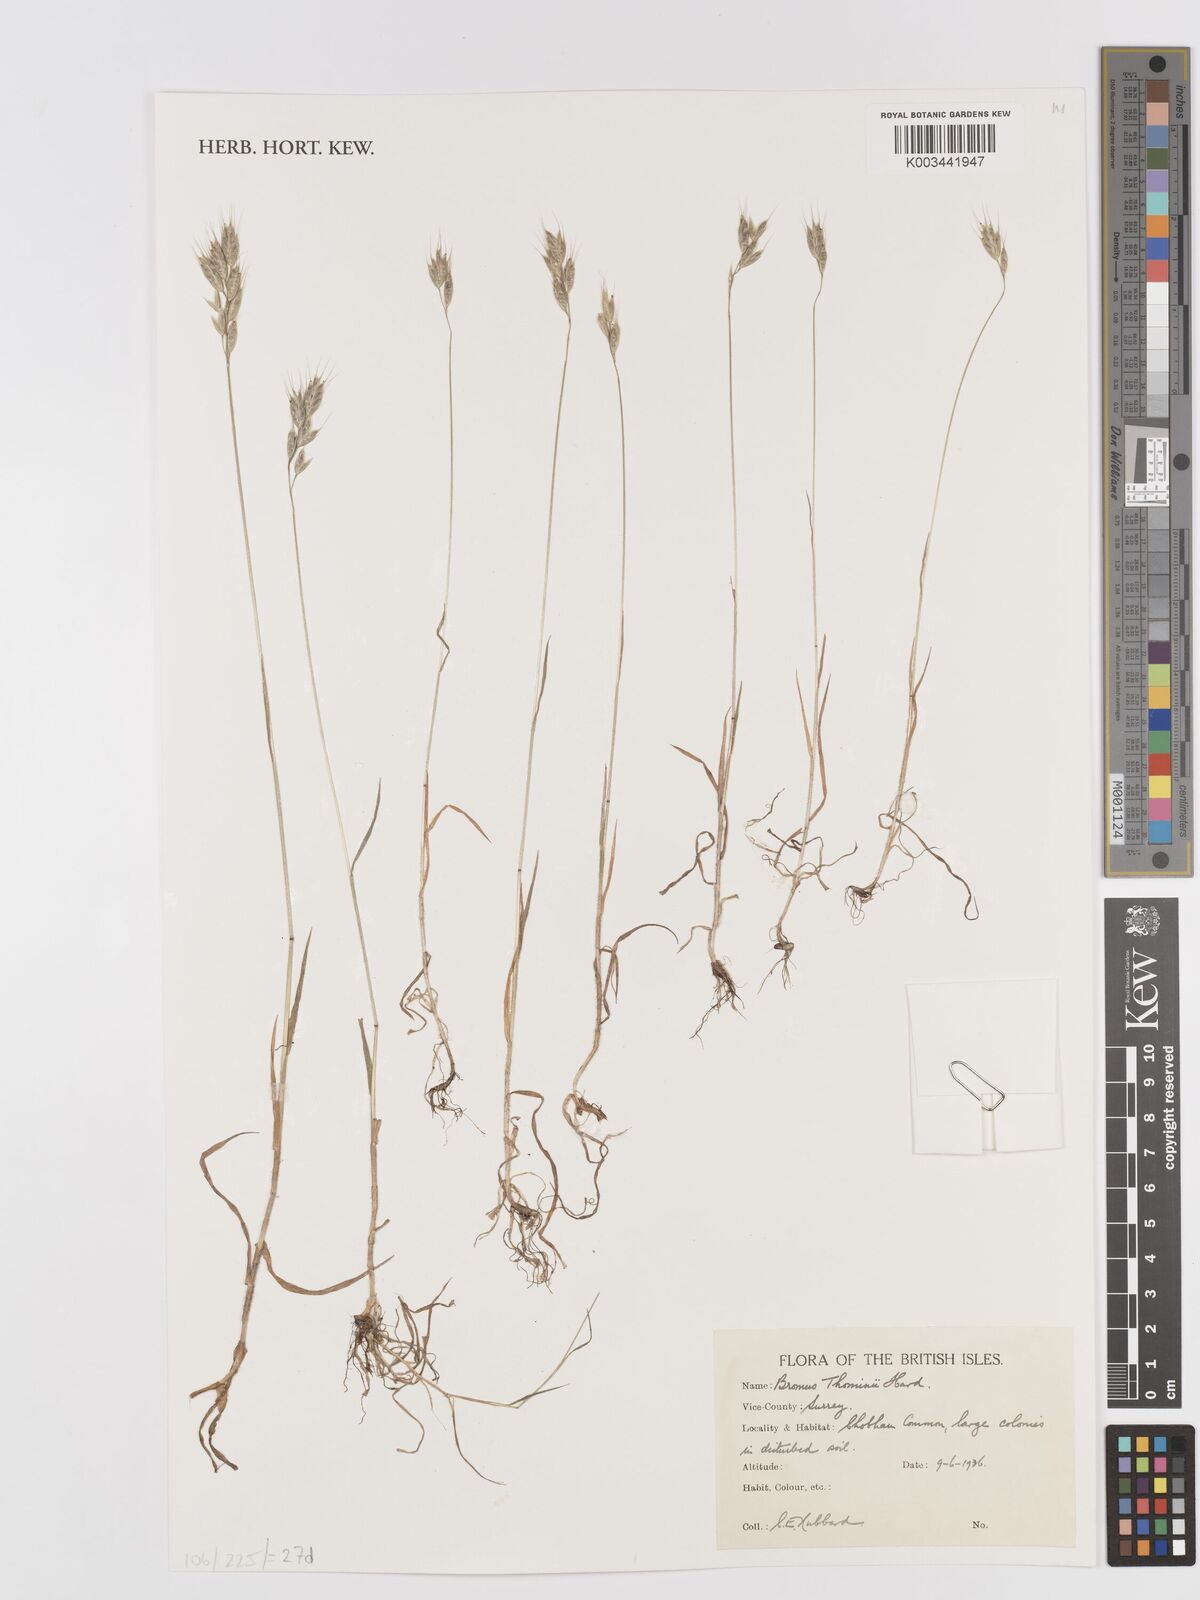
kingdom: Plantae
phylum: Tracheophyta
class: Liliopsida
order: Poales
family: Poaceae
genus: Bromus
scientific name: Bromus hordeaceus
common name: Soft brome
